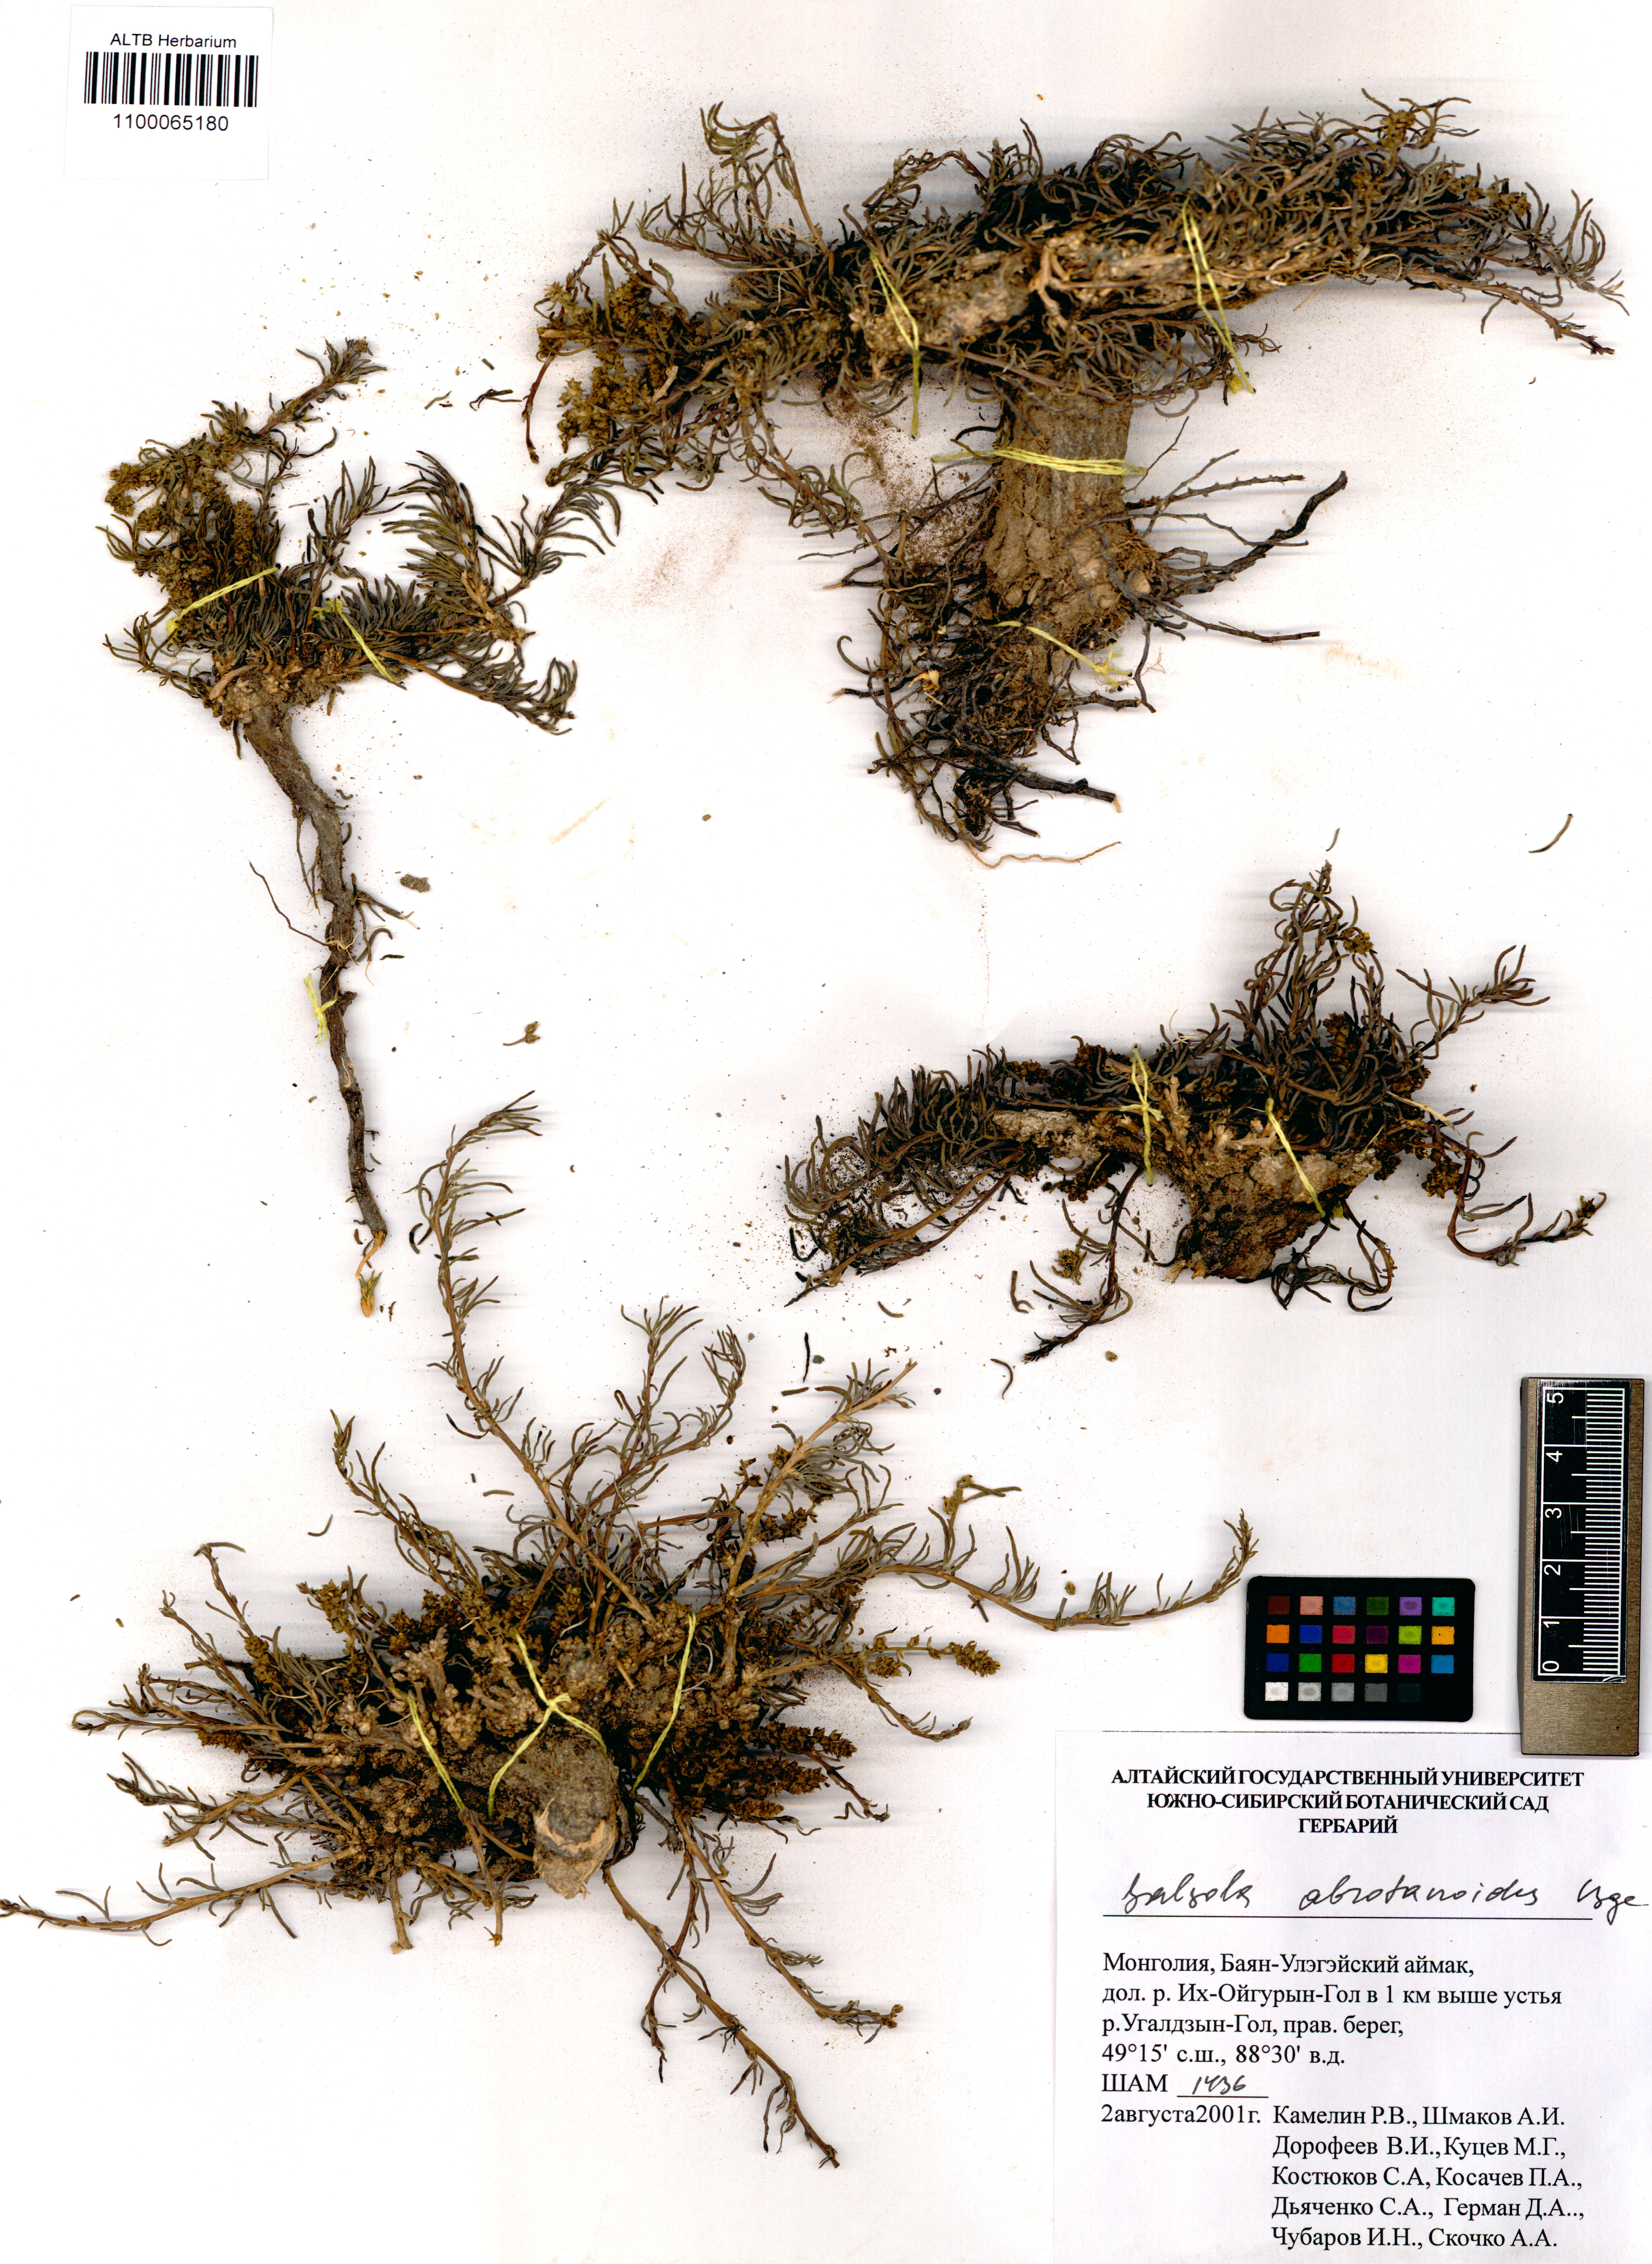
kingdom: Plantae
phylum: Tracheophyta
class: Magnoliopsida
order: Caryophyllales
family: Amaranthaceae
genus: Oreosalsola
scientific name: Oreosalsola abrotanoides
